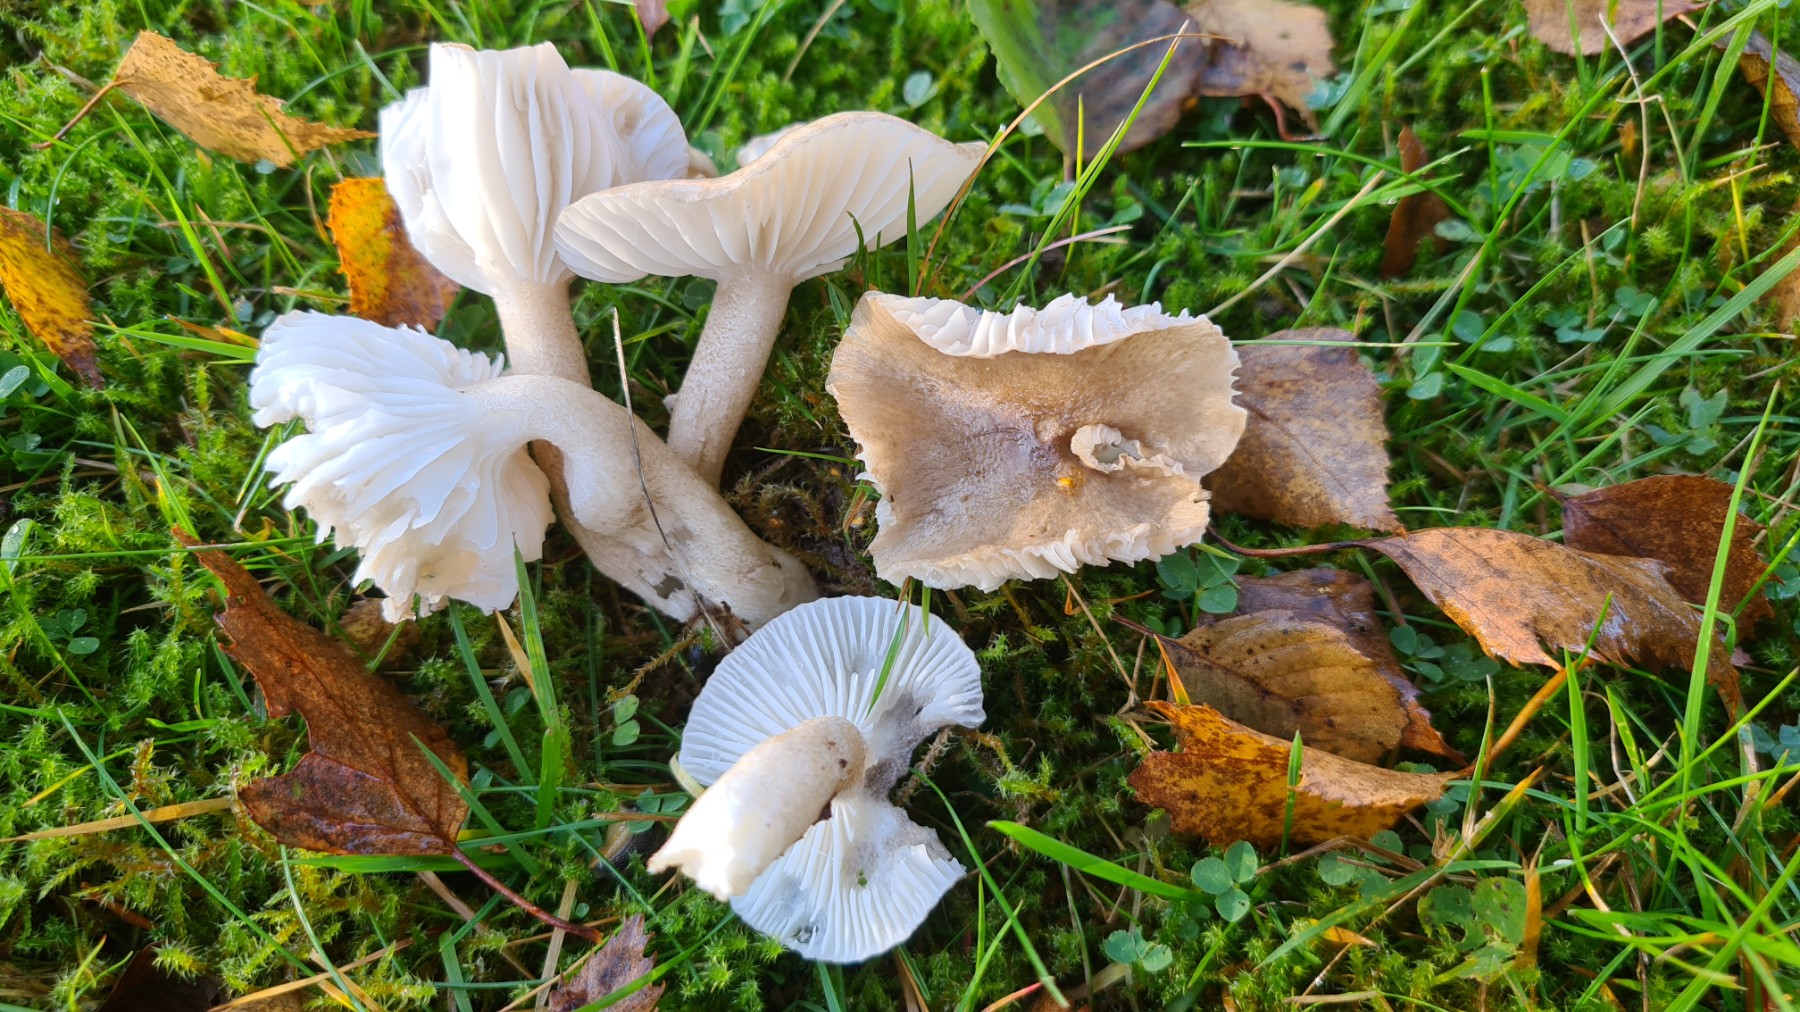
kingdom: Fungi
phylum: Basidiomycota
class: Agaricomycetes
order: Agaricales
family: Hygrophoraceae
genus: Hygrophorus
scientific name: Hygrophorus pustulatus
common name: mørkprikket sneglehat
